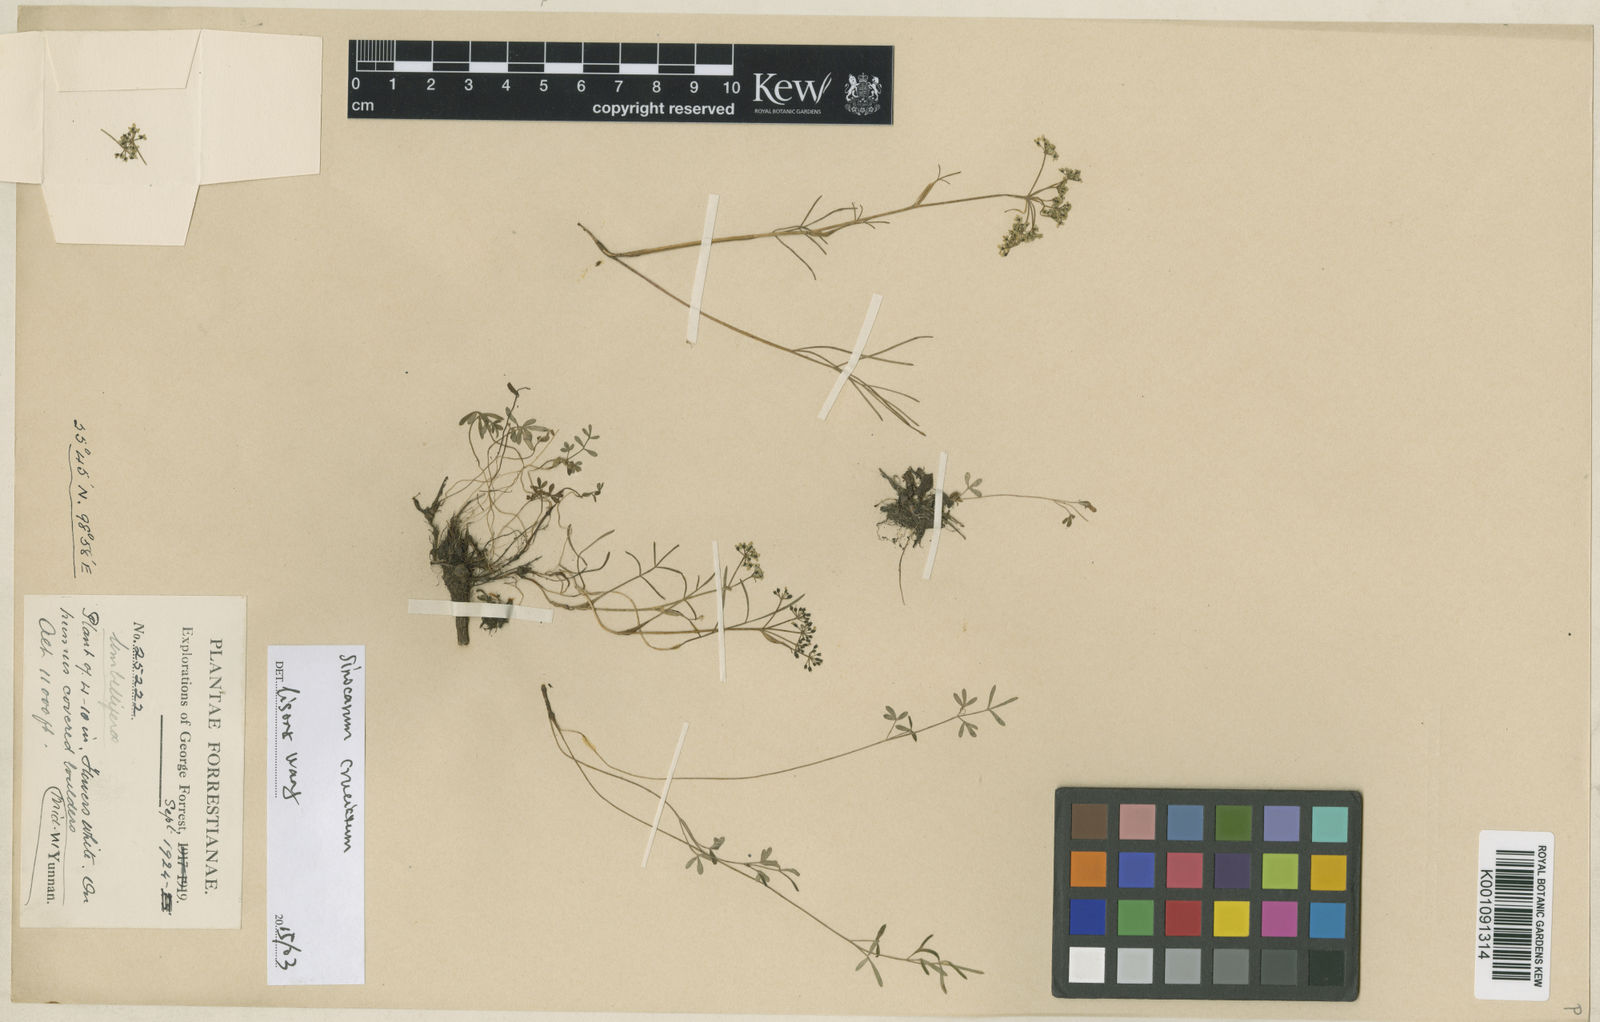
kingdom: Plantae
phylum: Tracheophyta
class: Magnoliopsida
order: Apiales
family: Apiaceae
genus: Sinocarum
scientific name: Sinocarum cruciatum
